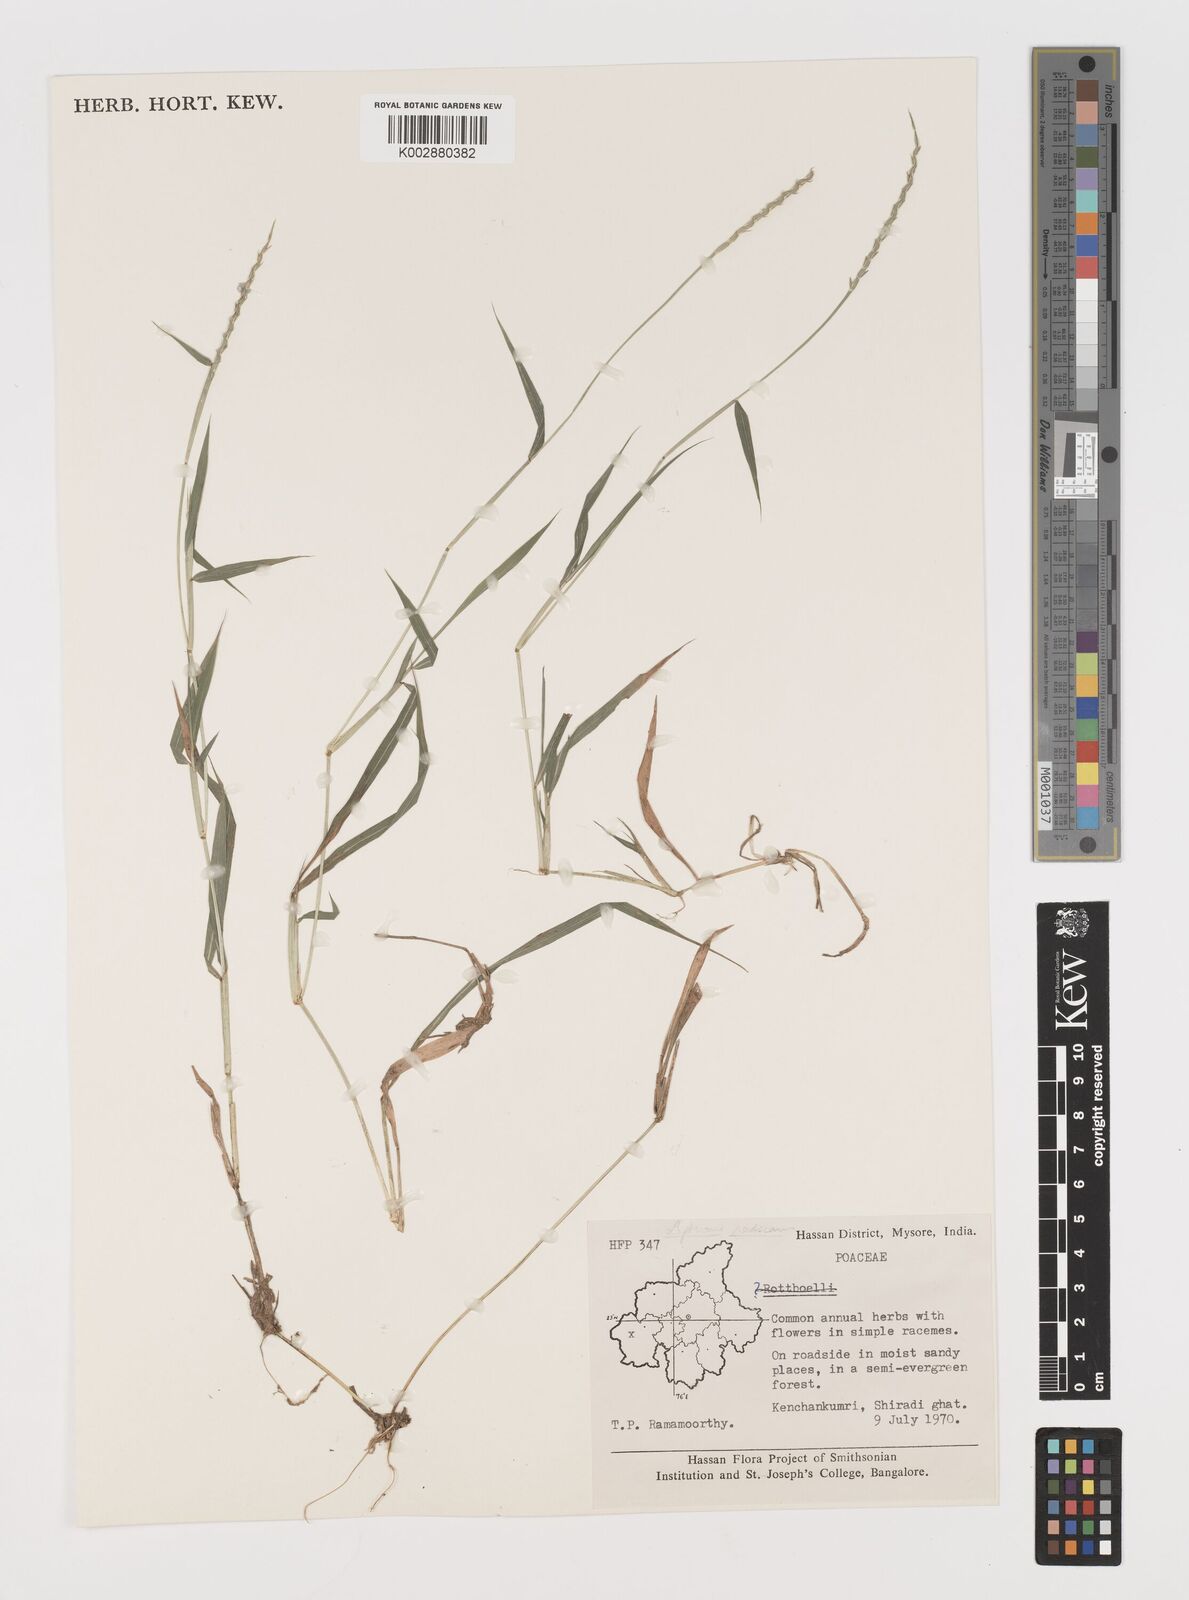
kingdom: Plantae
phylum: Tracheophyta
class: Liliopsida
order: Poales
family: Poaceae
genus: Lepturus
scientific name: Lepturus radicans
